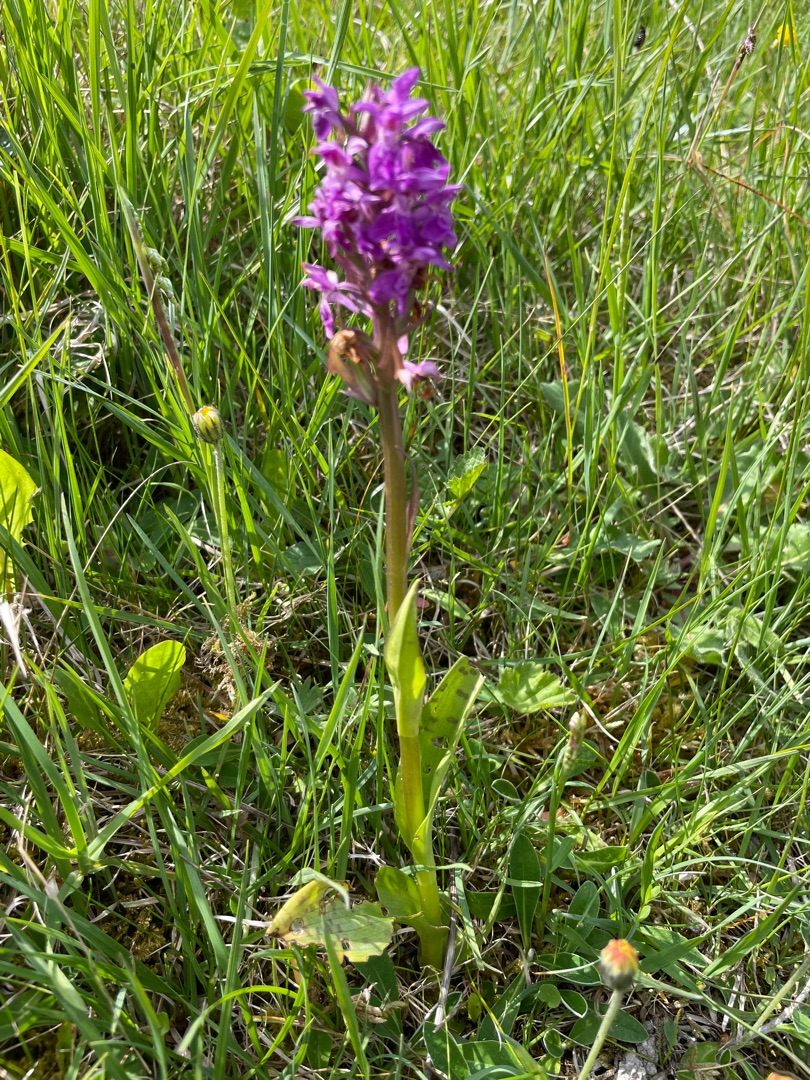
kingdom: Plantae
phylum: Tracheophyta
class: Liliopsida
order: Asparagales
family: Orchidaceae
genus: Dactylorhiza
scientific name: Dactylorhiza majalis
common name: Maj-gøgeurt
